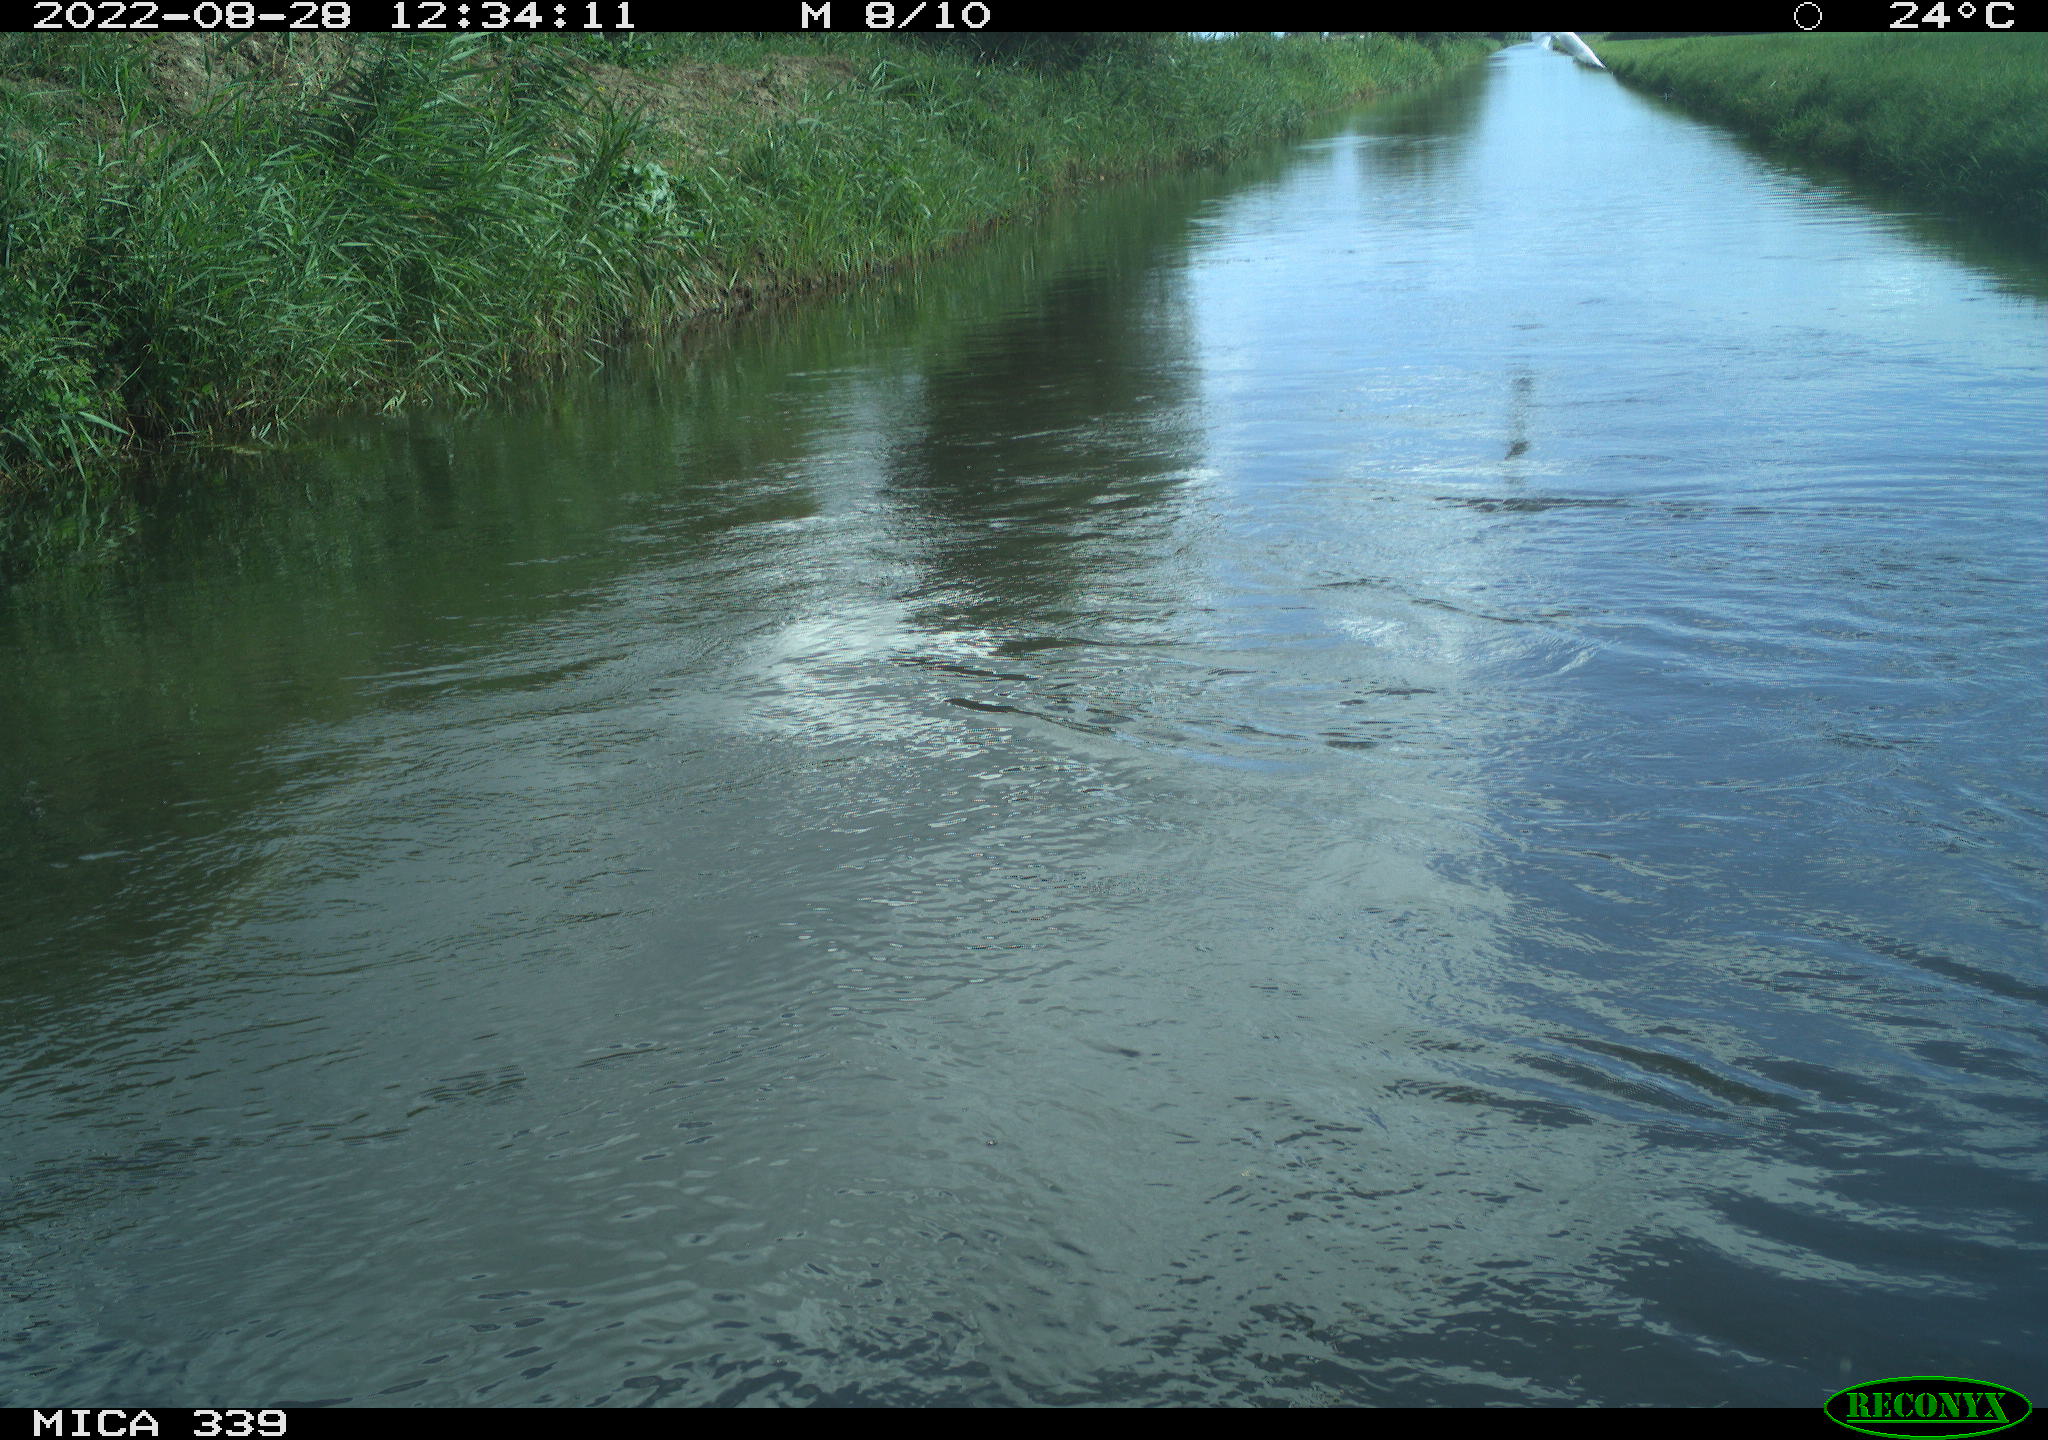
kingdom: Animalia
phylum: Chordata
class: Aves
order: Charadriiformes
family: Laridae
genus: Chroicocephalus
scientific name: Chroicocephalus ridibundus
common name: Black-headed gull
